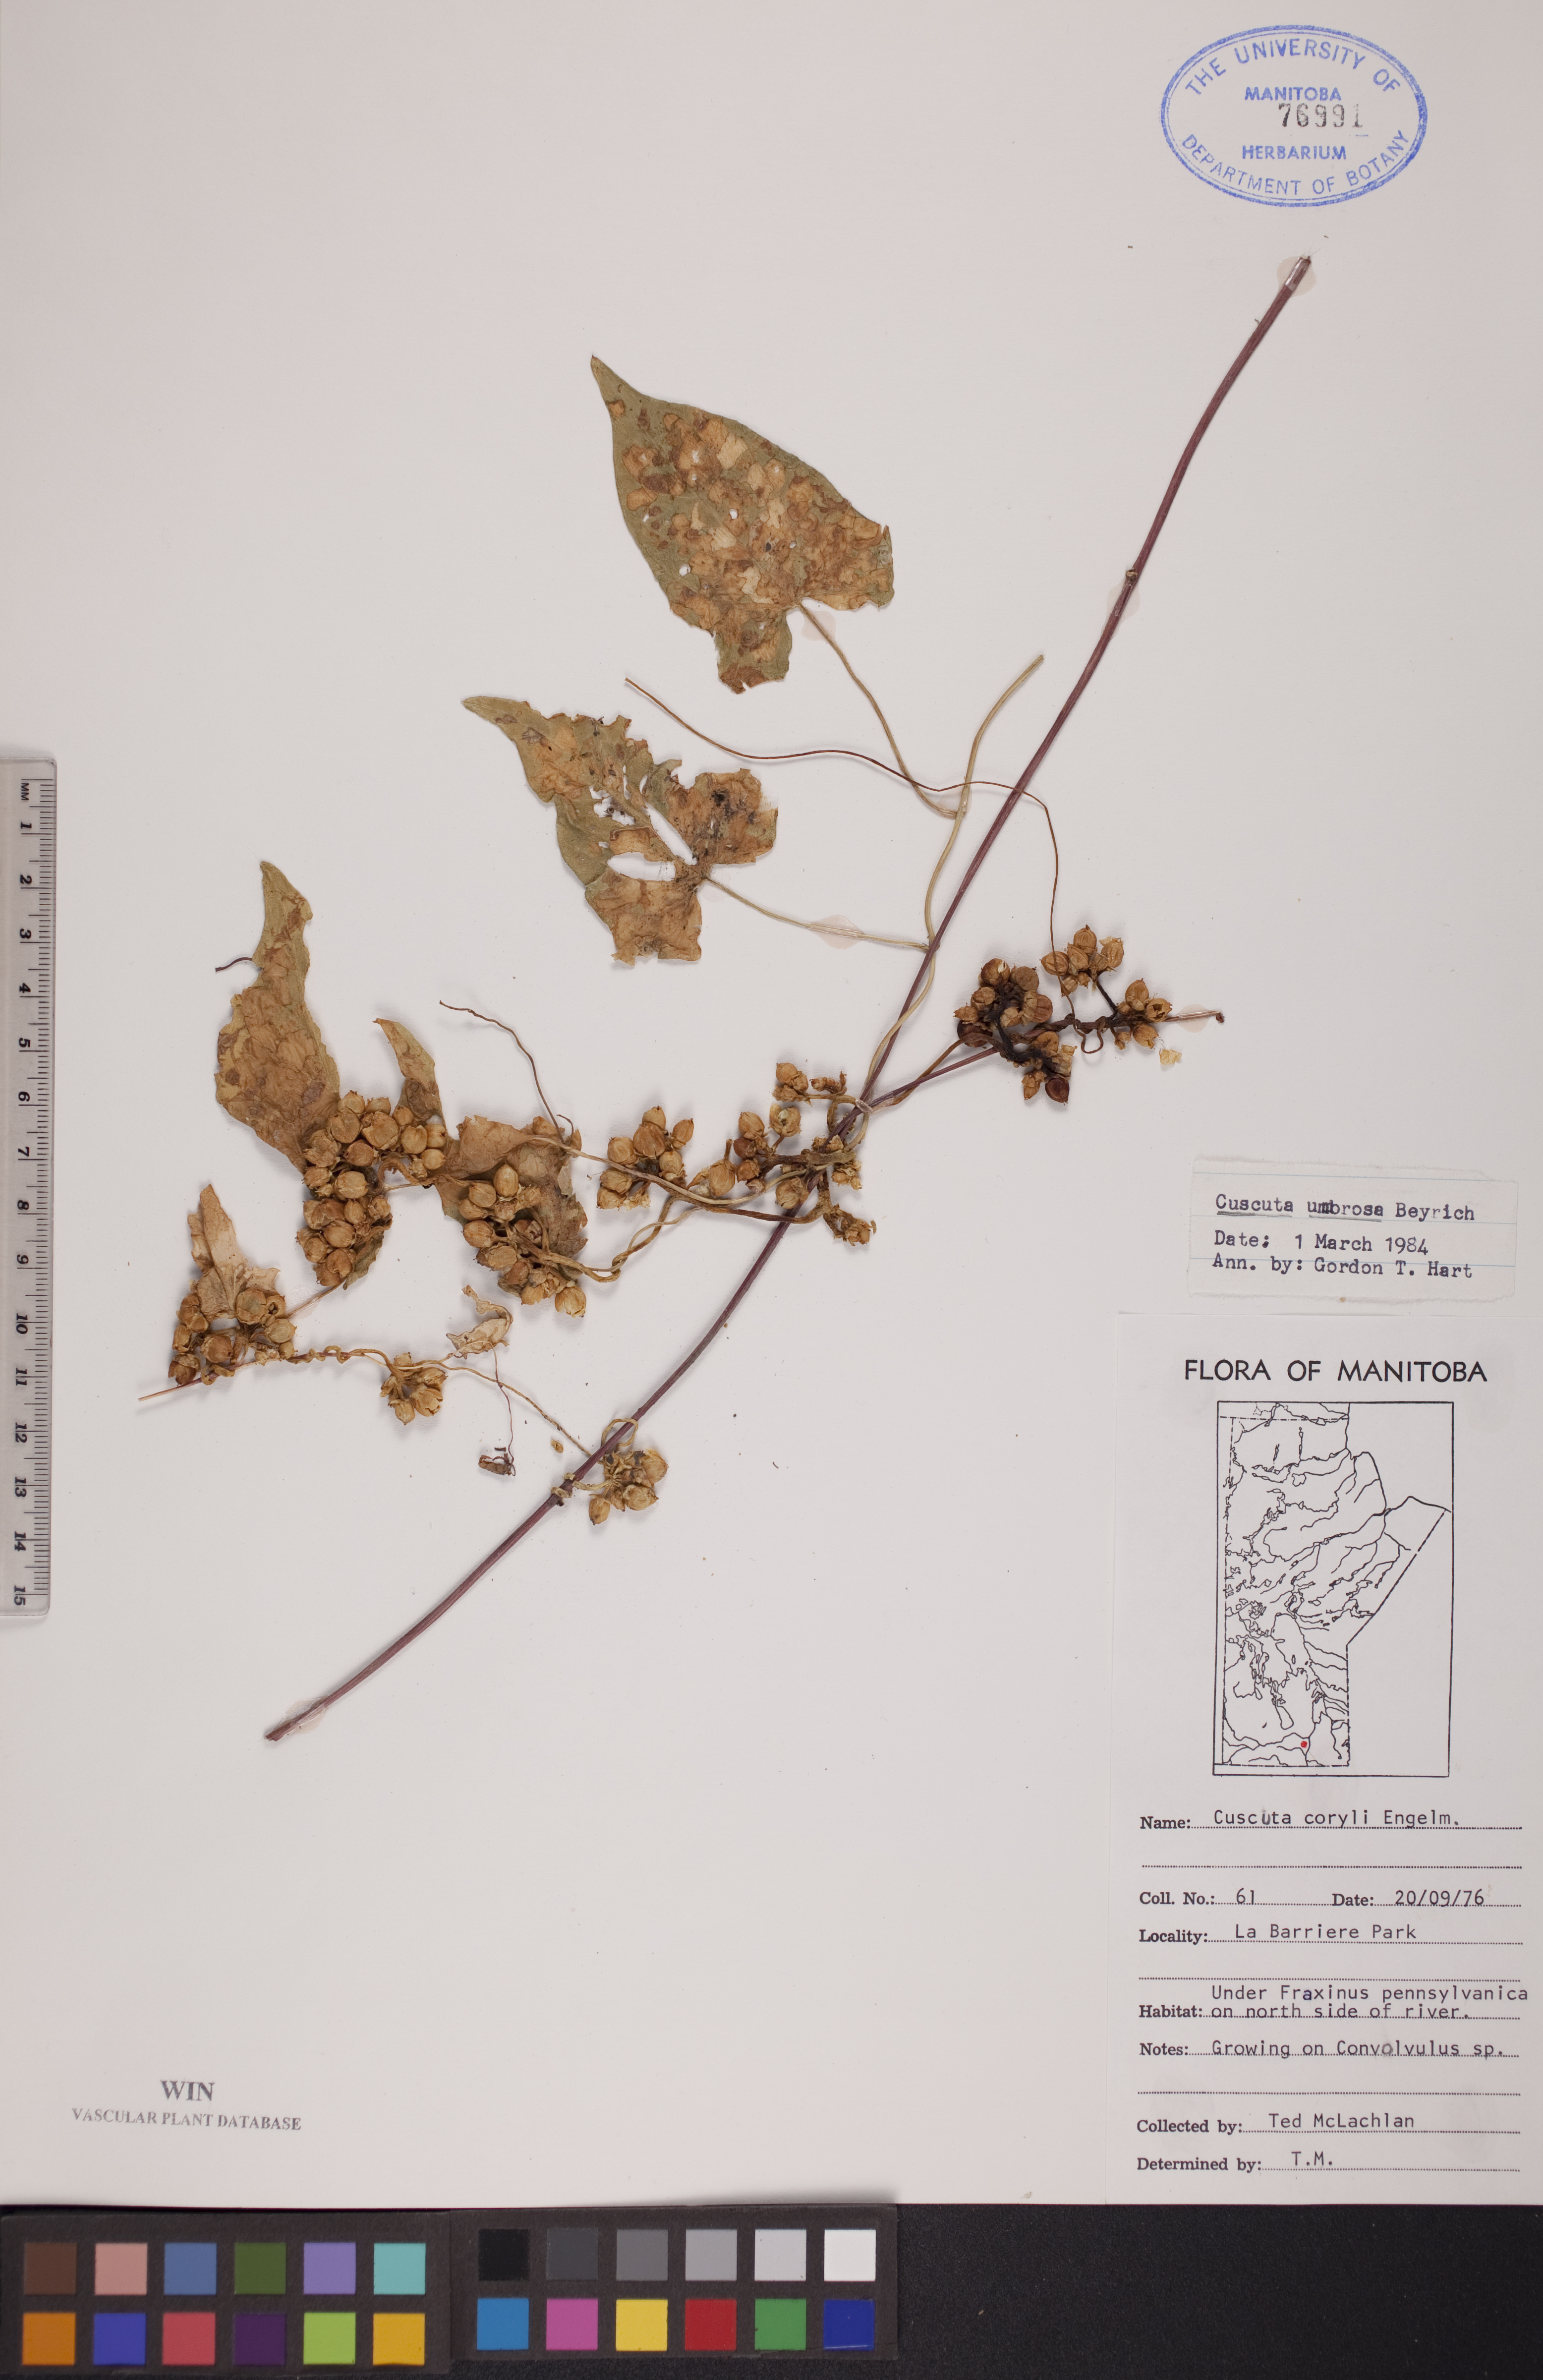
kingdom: Plantae
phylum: Tracheophyta
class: Magnoliopsida
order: Solanales
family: Convolvulaceae
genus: Cuscuta
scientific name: Cuscuta umbrosa
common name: Bigfruit dodder
